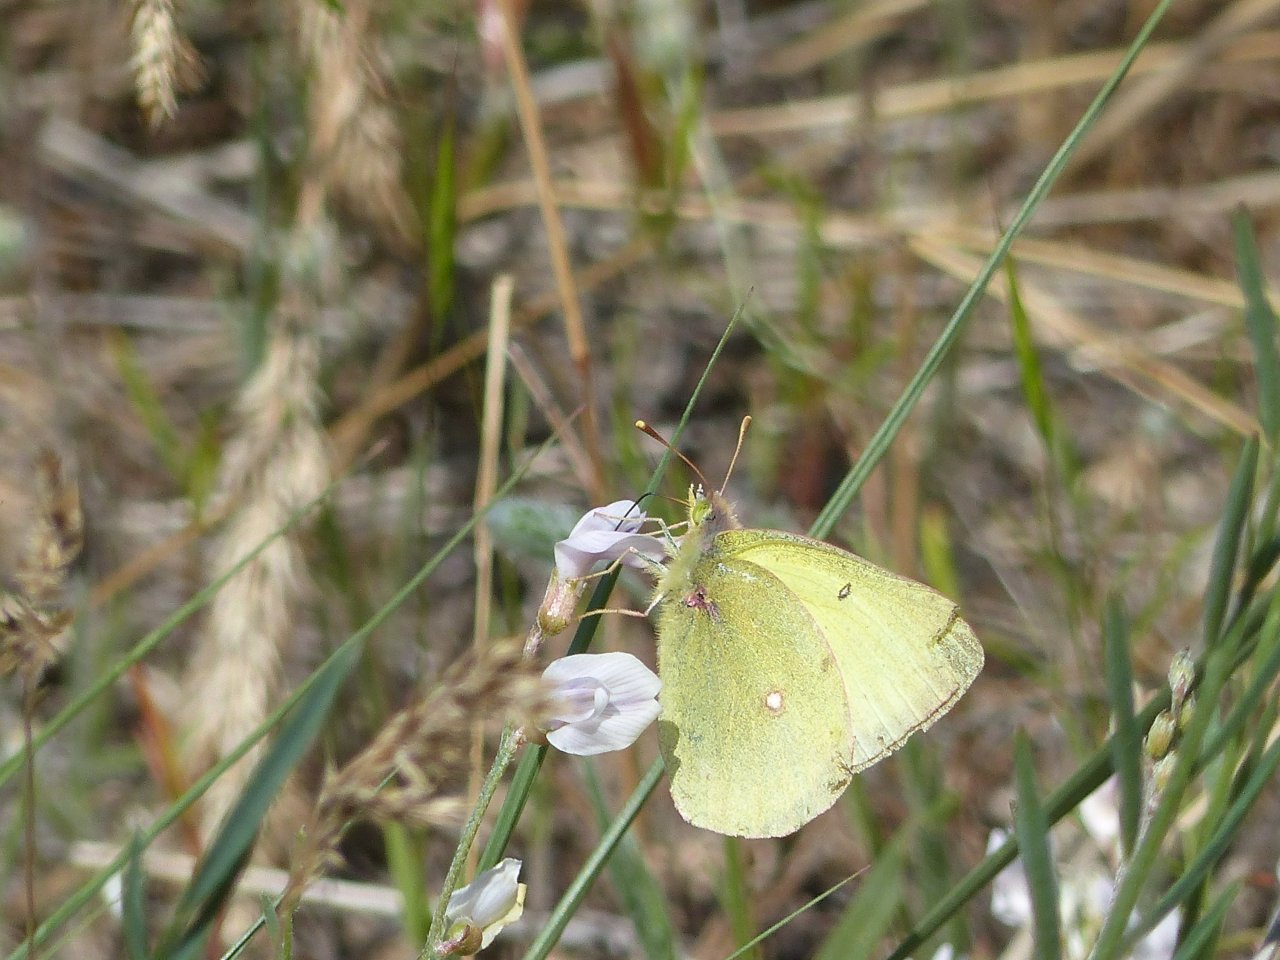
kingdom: Animalia
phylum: Arthropoda
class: Insecta
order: Lepidoptera
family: Pieridae
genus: Colias
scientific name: Colias philodice
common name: Clouded Sulphur
